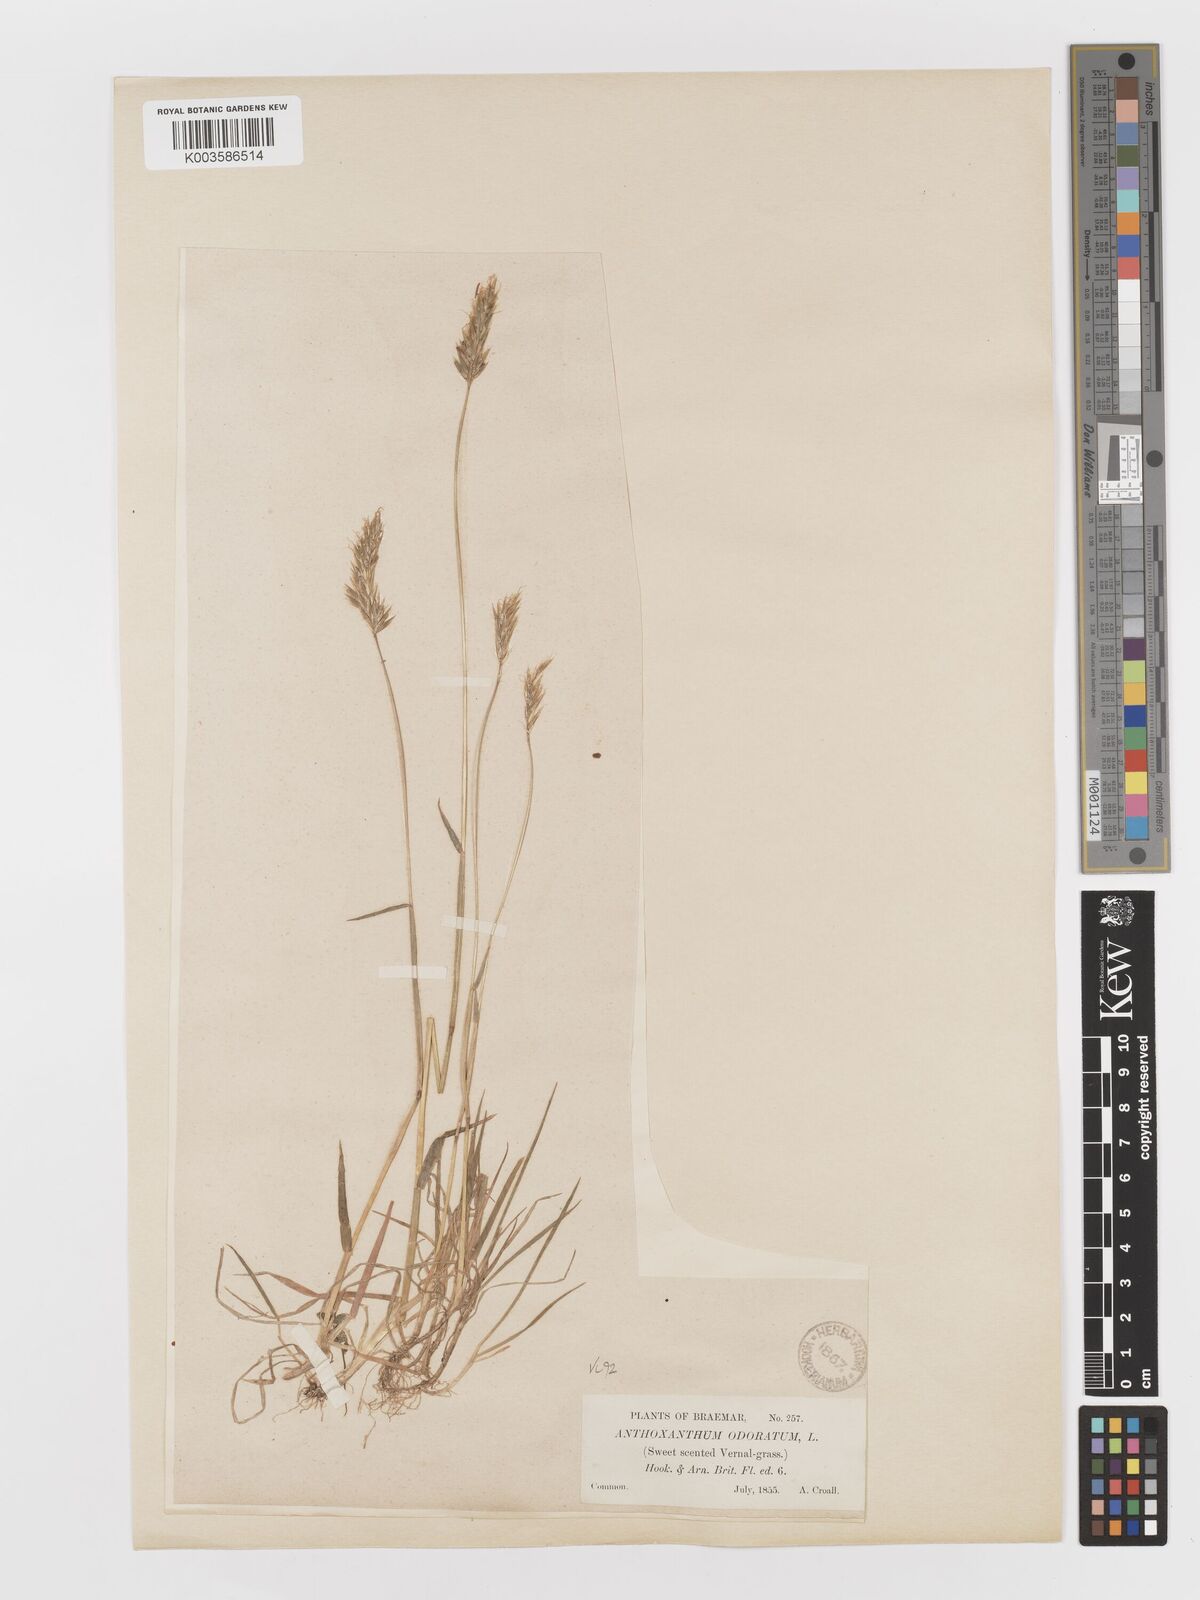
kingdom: Plantae
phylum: Tracheophyta
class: Liliopsida
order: Poales
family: Poaceae
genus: Anthoxanthum
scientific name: Anthoxanthum odoratum
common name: Sweet vernalgrass
